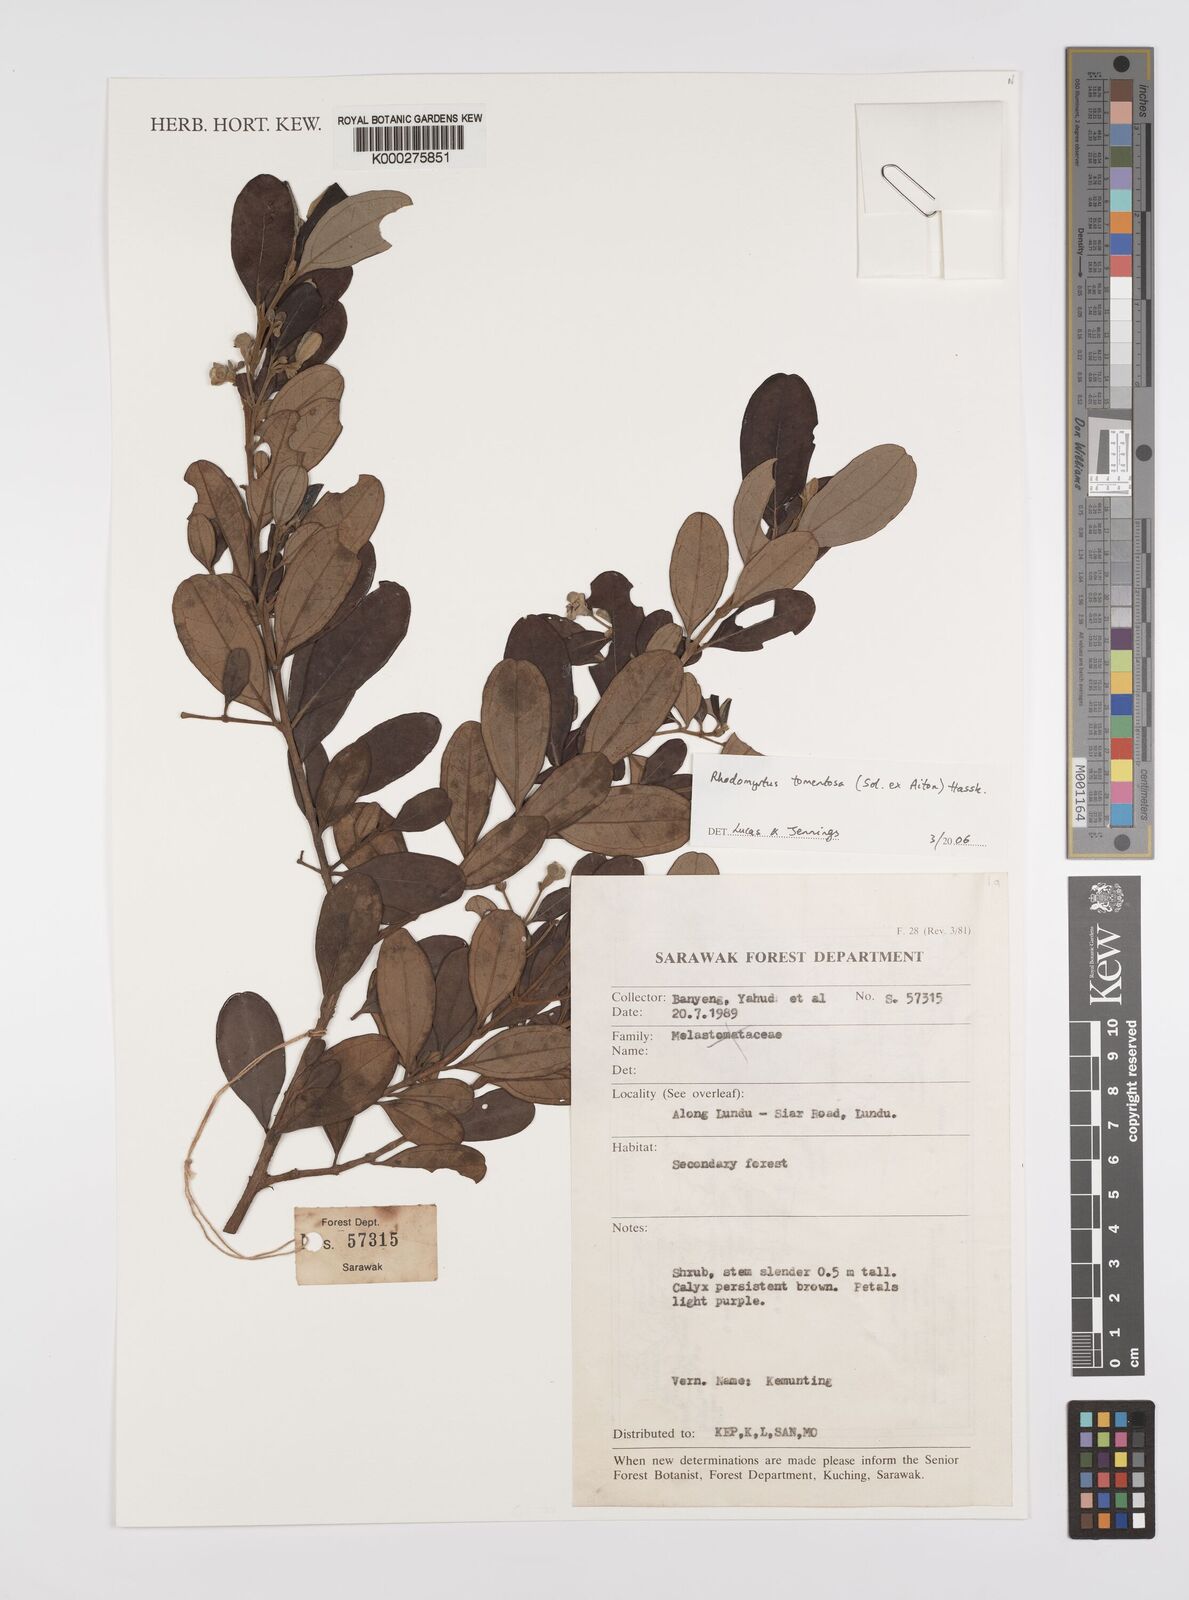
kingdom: Plantae
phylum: Tracheophyta
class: Magnoliopsida
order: Myrtales
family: Myrtaceae
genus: Rhodomyrtus
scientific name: Rhodomyrtus tomentosa
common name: Rose myrtle
